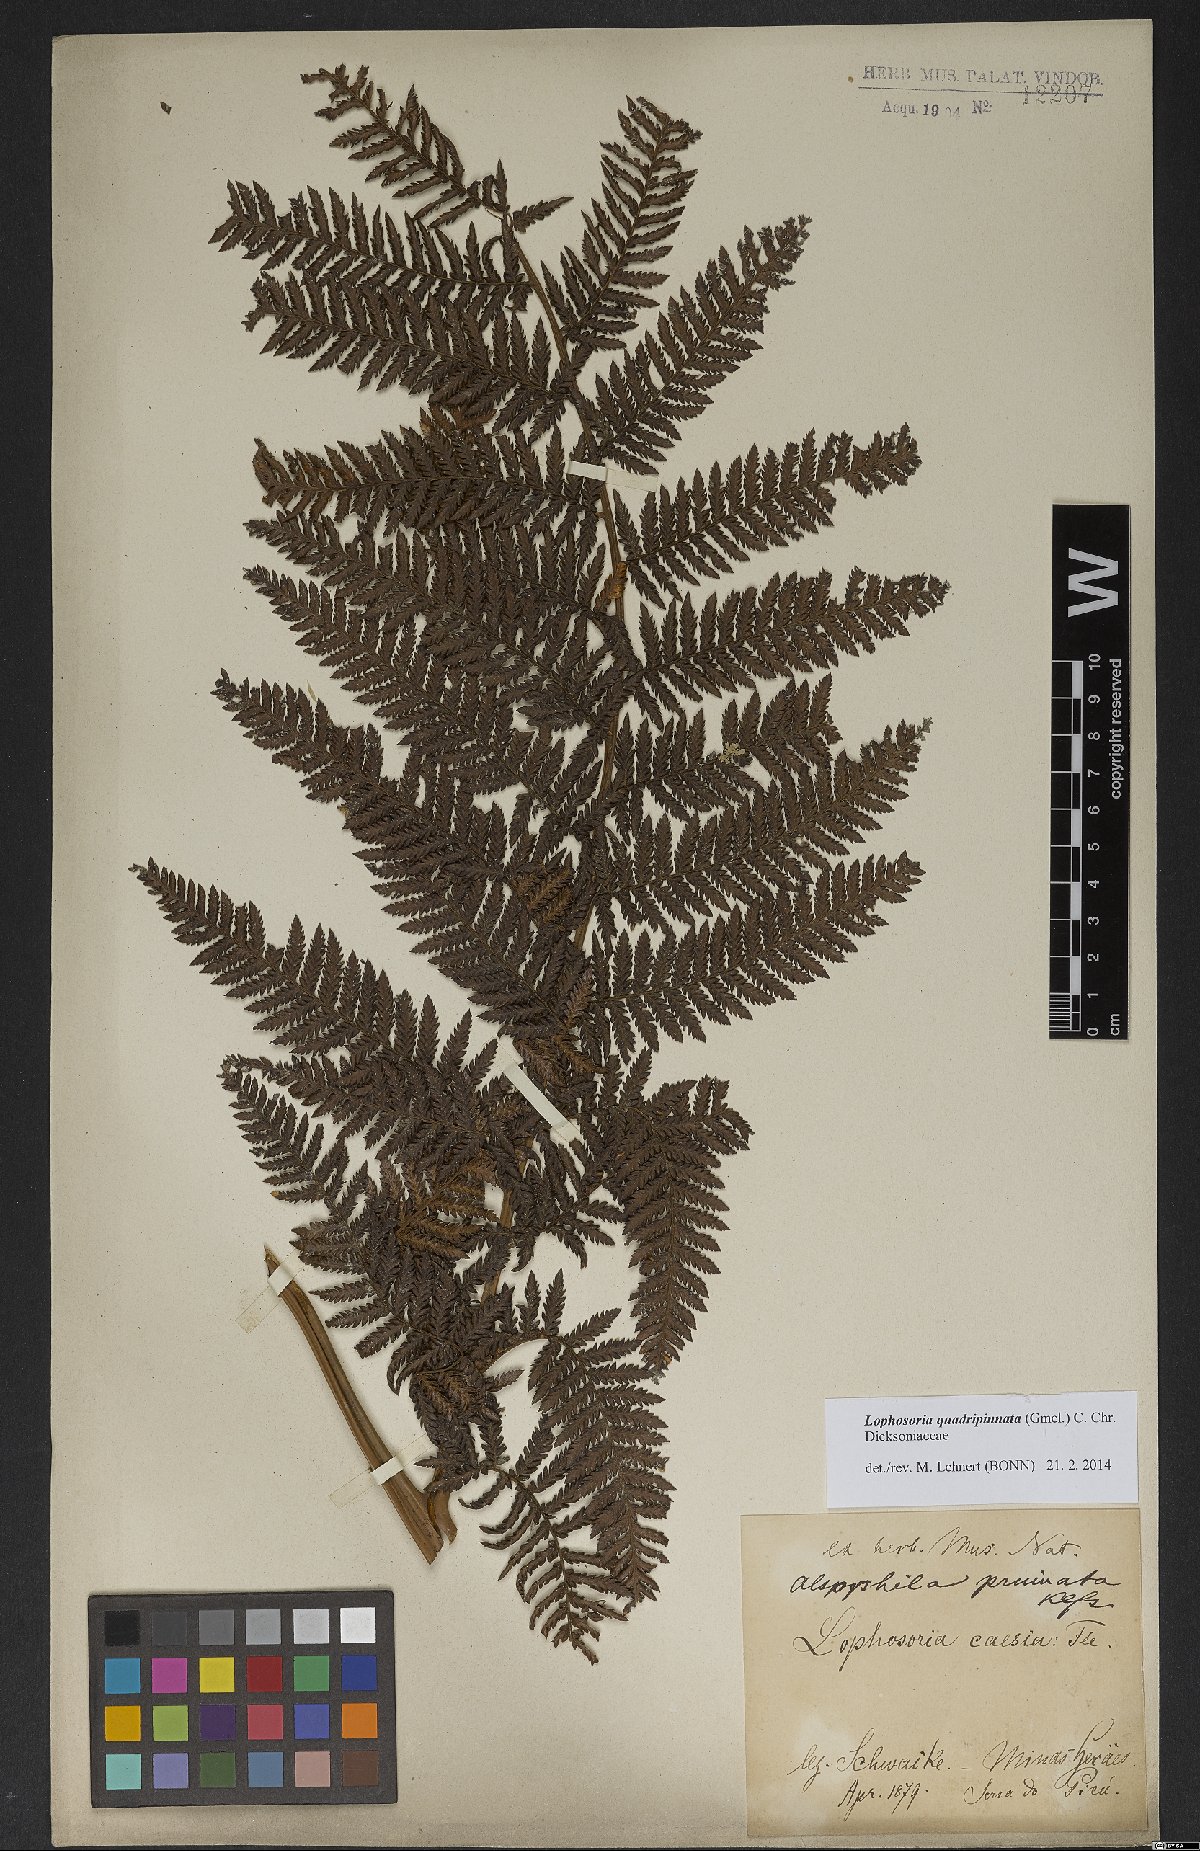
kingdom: Plantae
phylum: Tracheophyta
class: Polypodiopsida
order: Cyatheales
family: Dicksoniaceae
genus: Lophosoria
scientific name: Lophosoria quadripinnata
